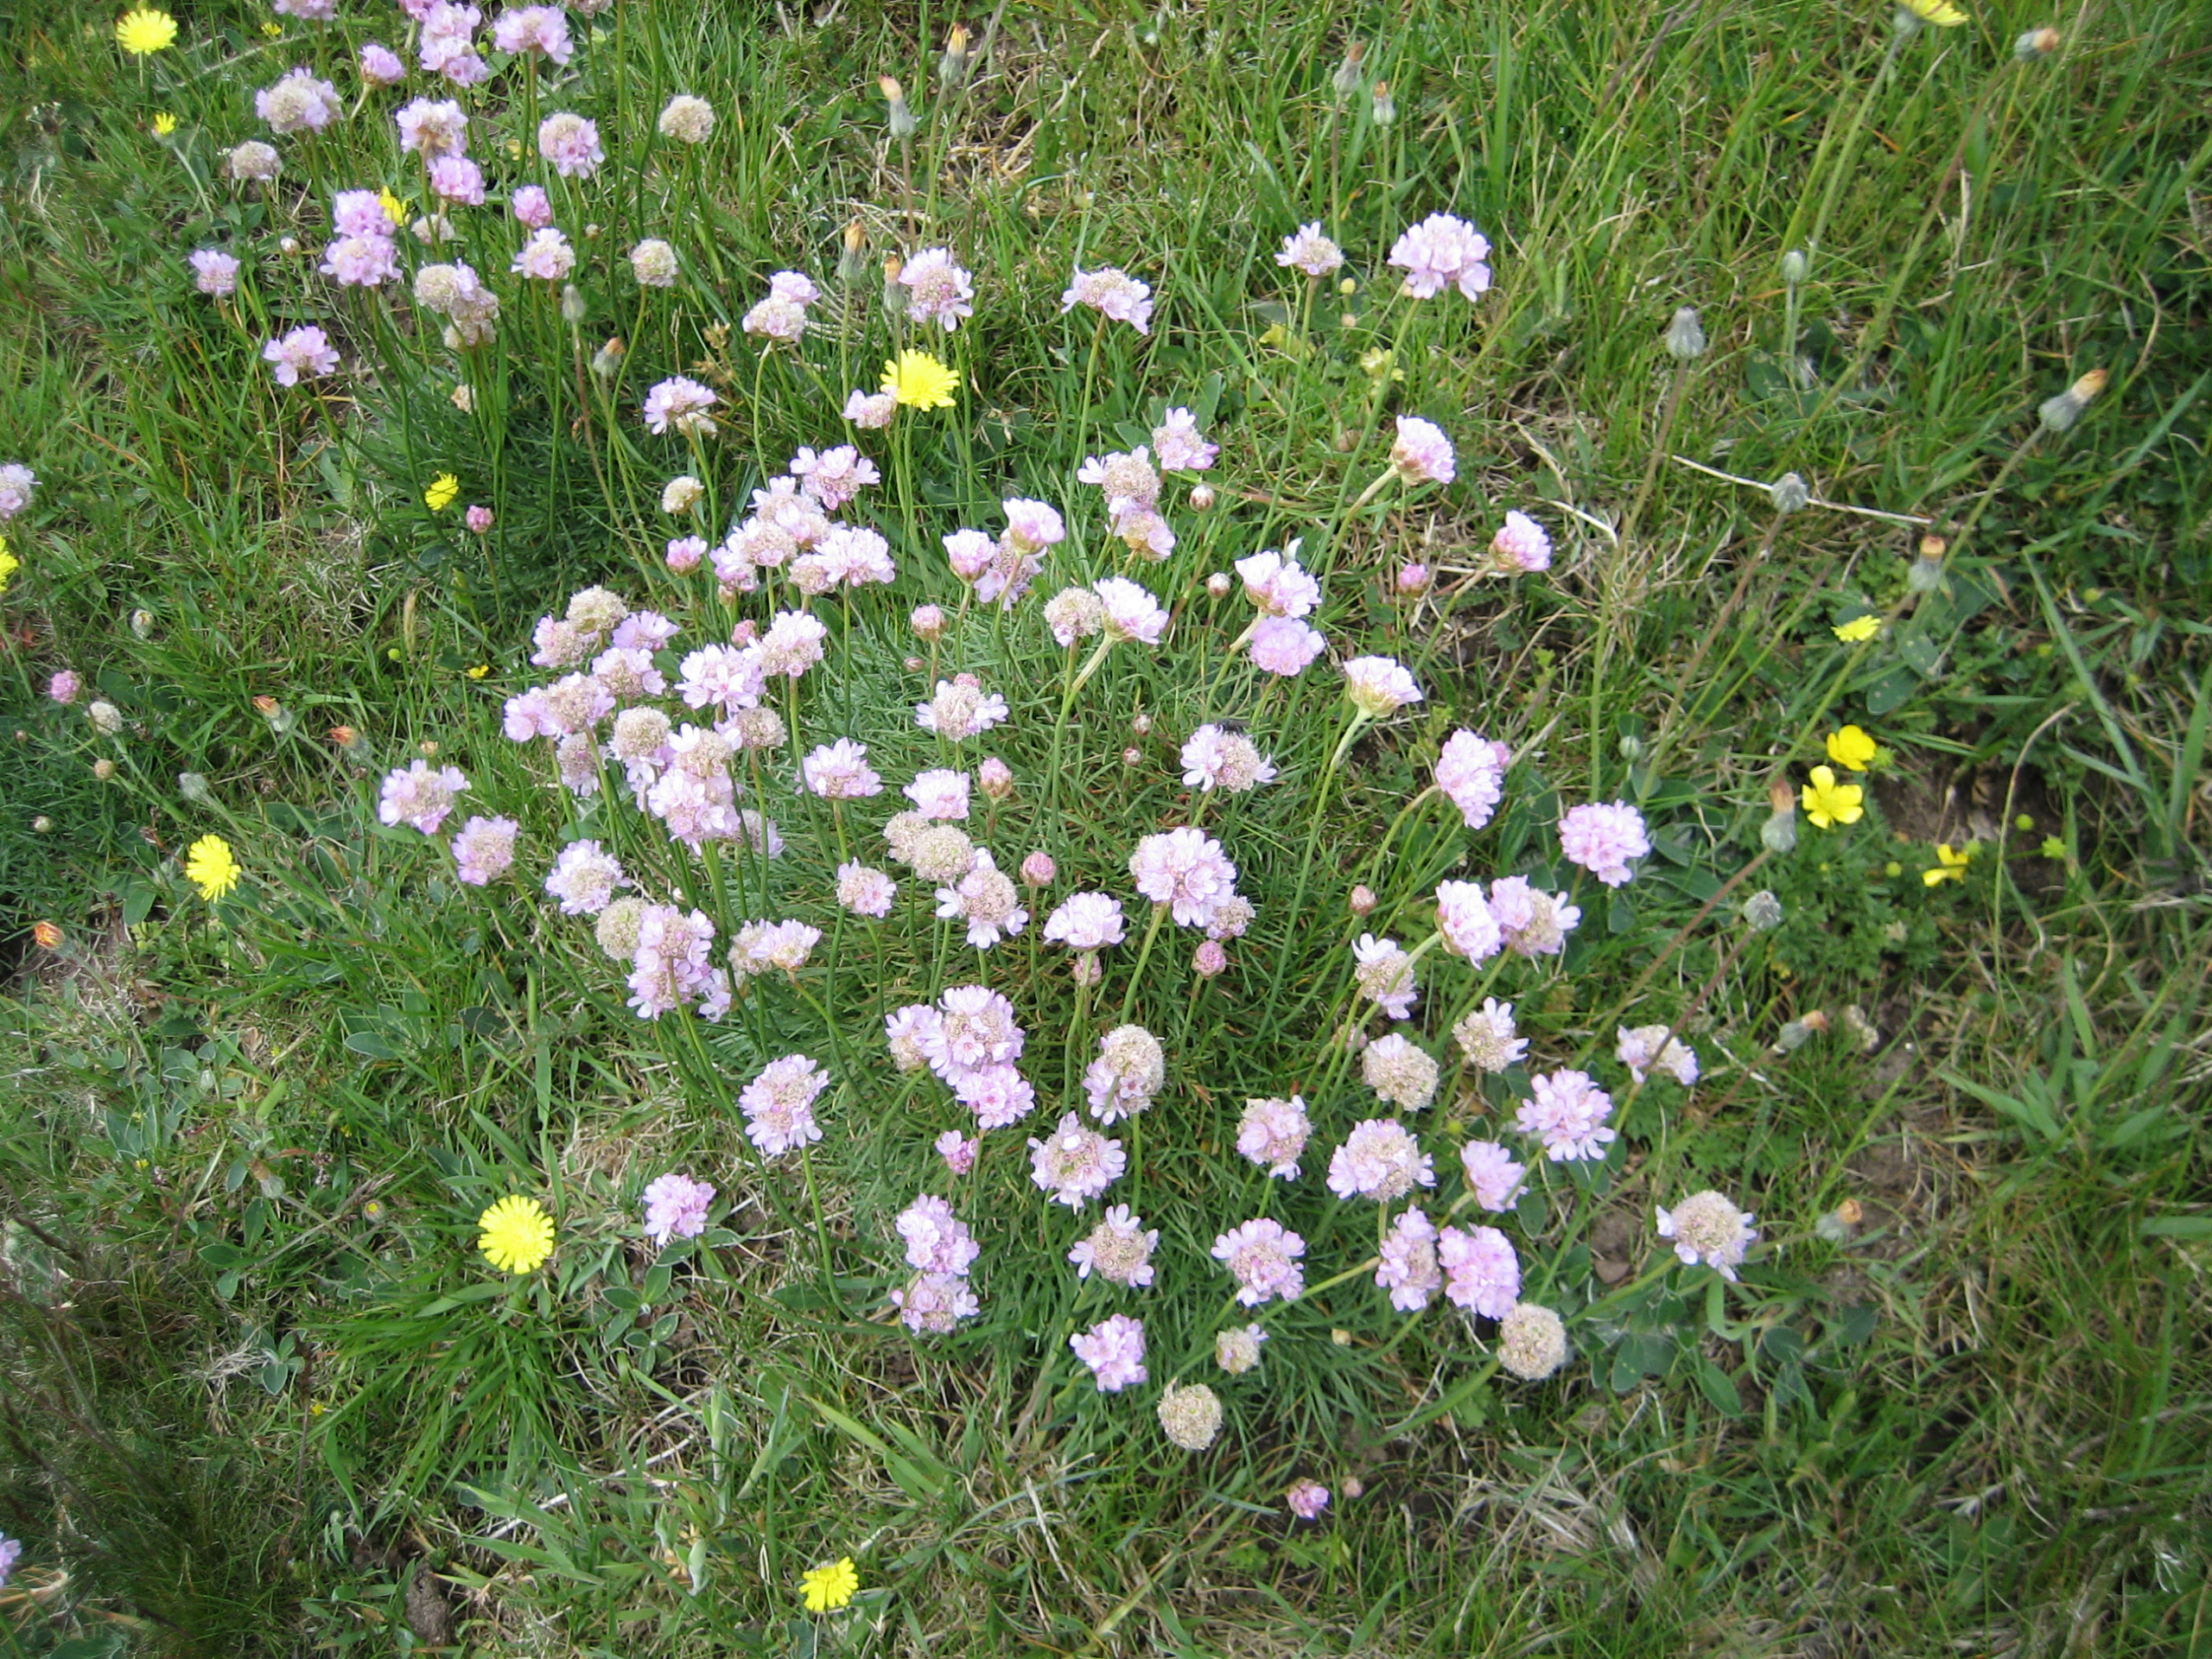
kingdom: Plantae
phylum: Tracheophyta
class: Magnoliopsida
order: Caryophyllales
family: Plumbaginaceae
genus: Armeria
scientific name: Armeria maritima
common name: Engelskgræs
